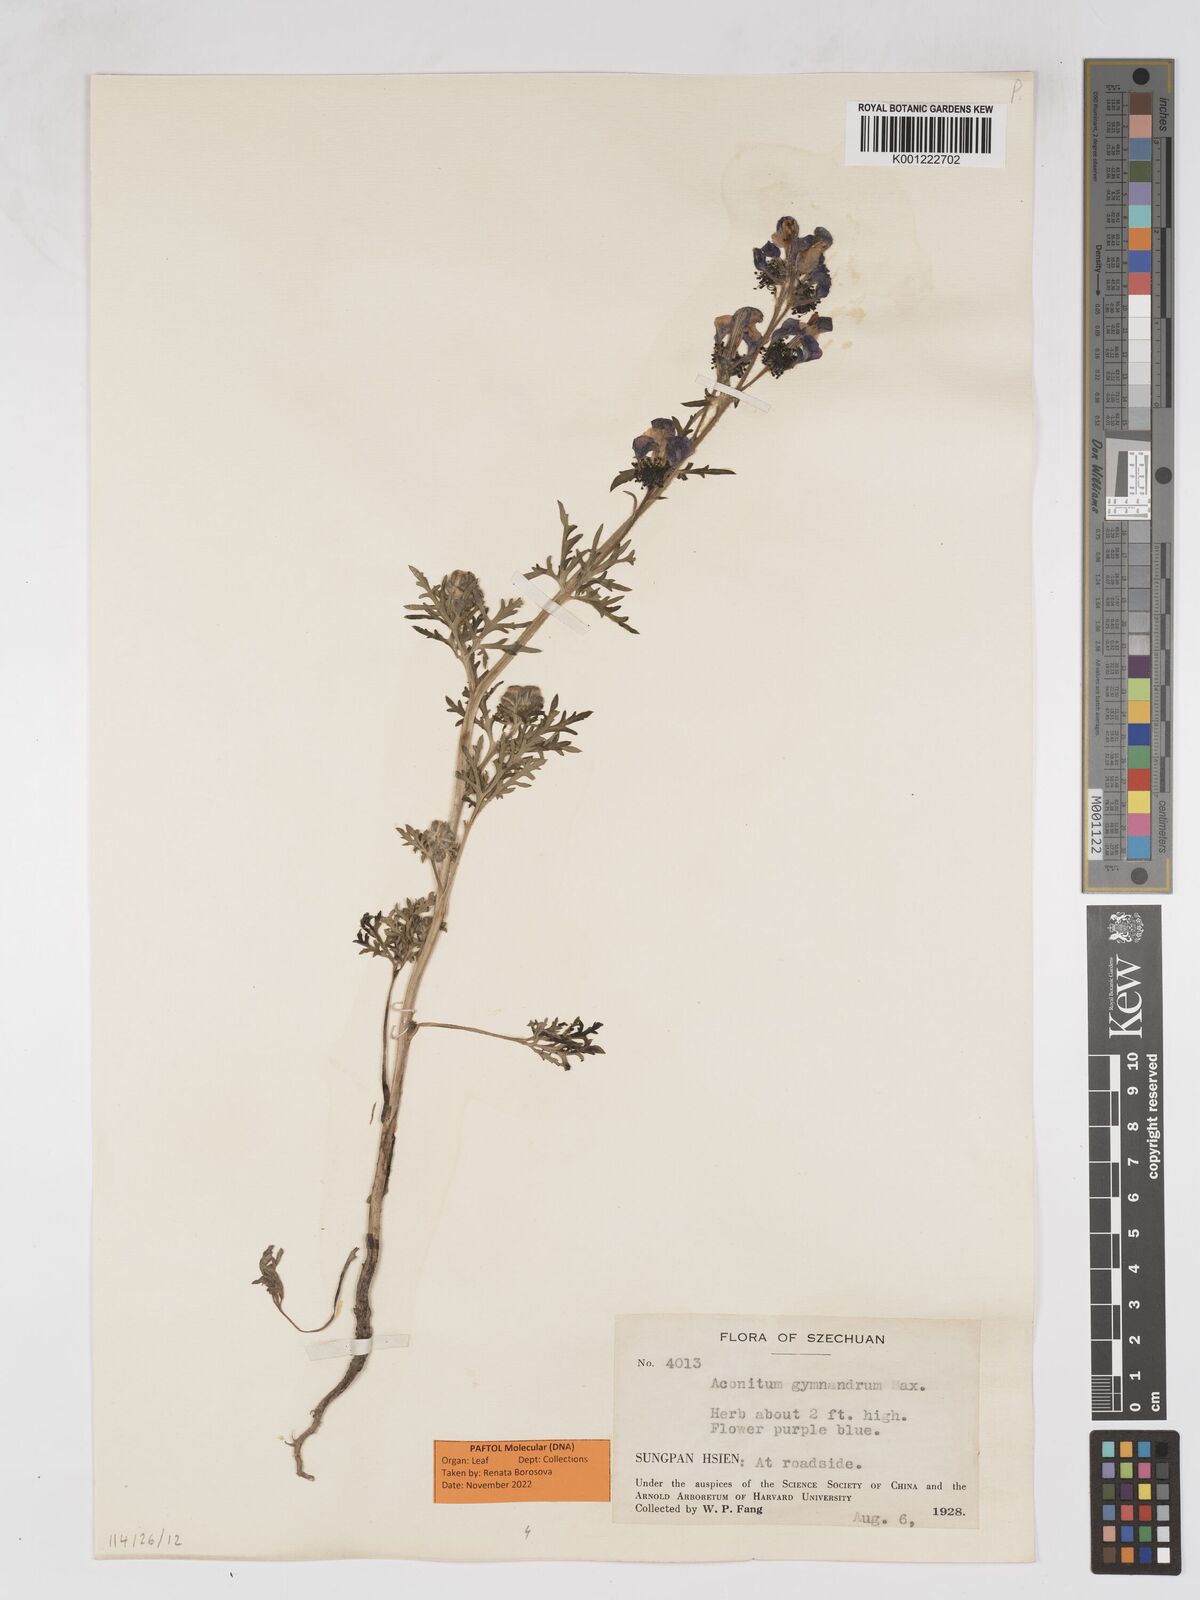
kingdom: Plantae
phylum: Tracheophyta
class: Magnoliopsida
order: Ranunculales
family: Ranunculaceae
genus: Gymnaconitum
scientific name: Gymnaconitum gymnandrum
